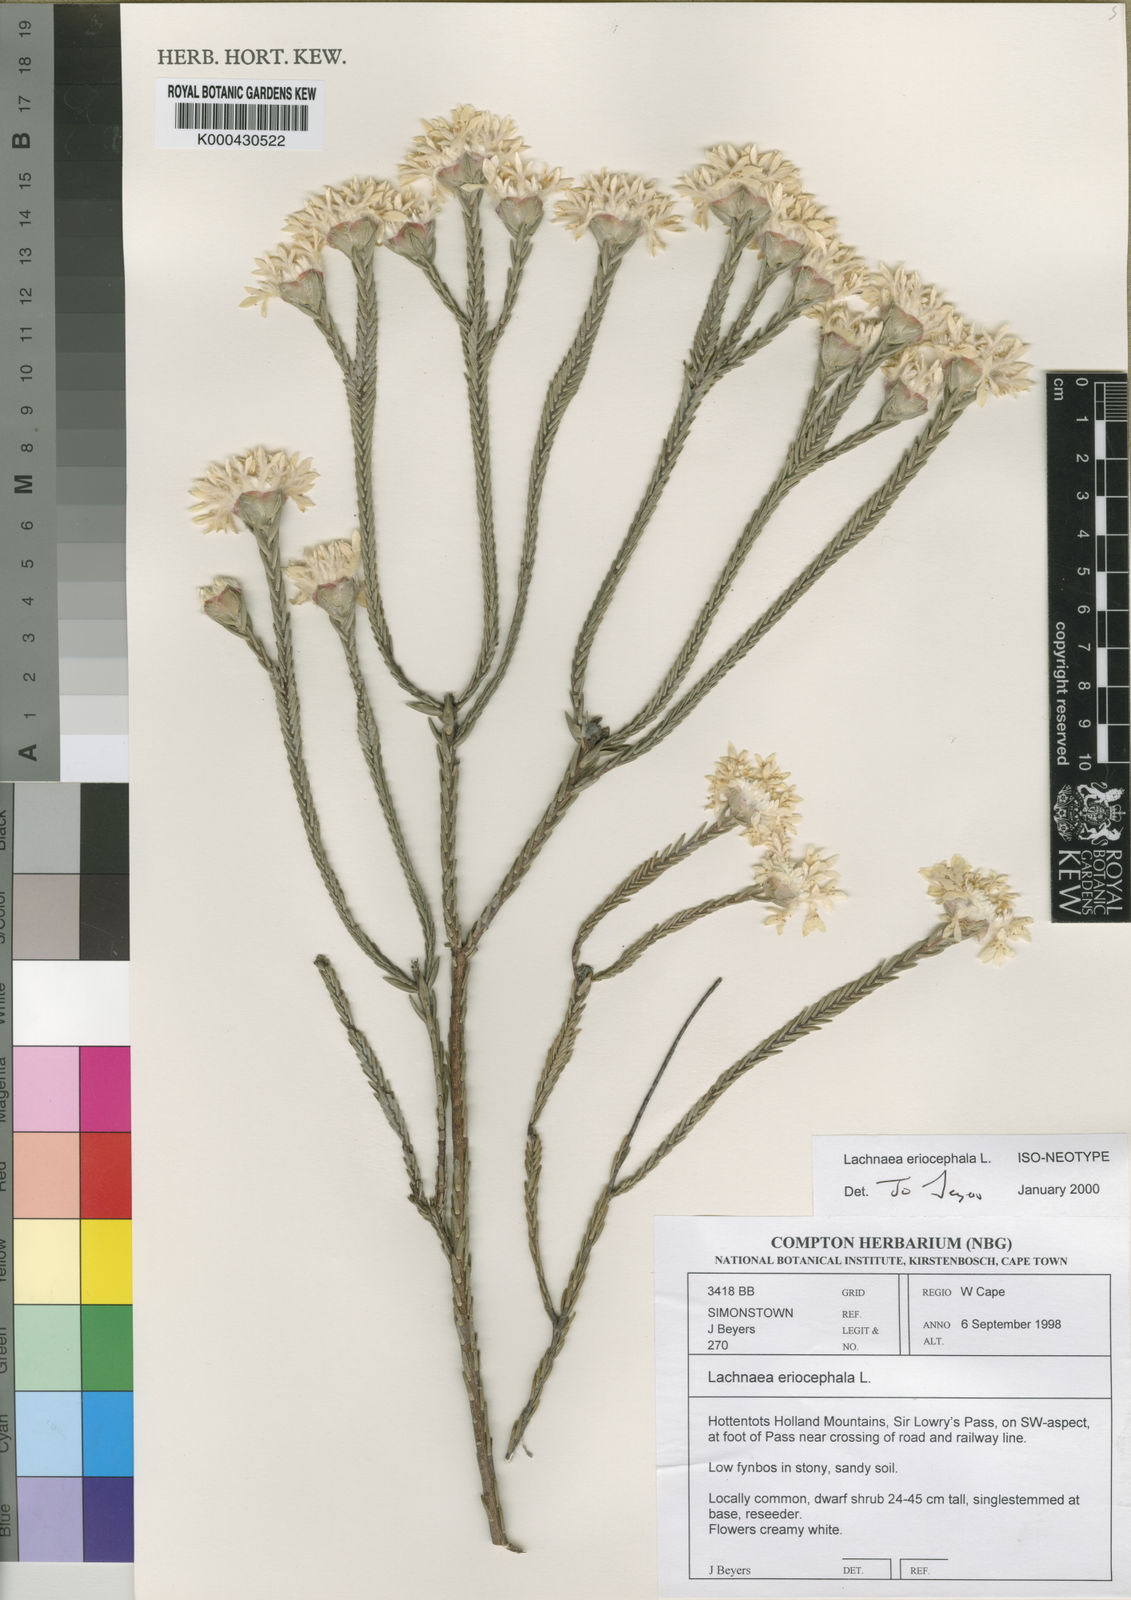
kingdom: Plantae
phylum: Tracheophyta
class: Magnoliopsida
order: Malvales
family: Thymelaeaceae
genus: Lachnaea
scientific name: Lachnaea ericoides
